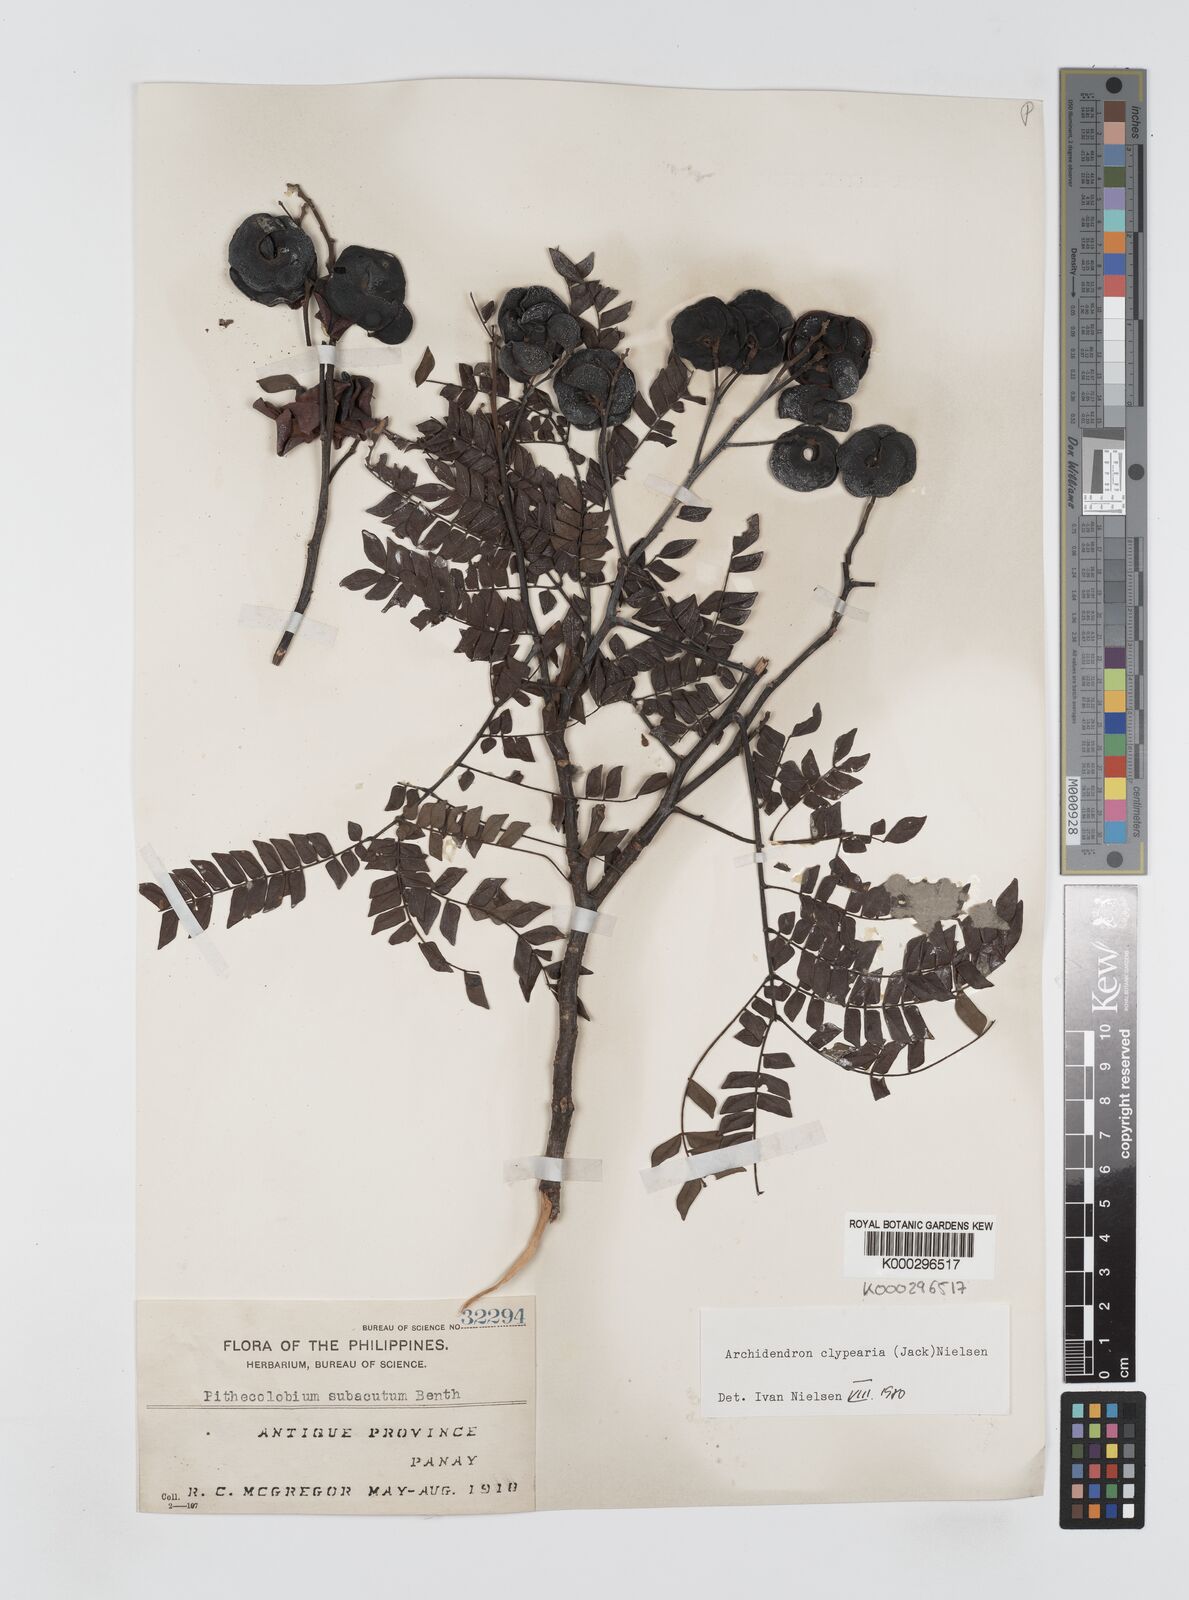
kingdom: Plantae
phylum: Tracheophyta
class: Magnoliopsida
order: Fabales
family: Fabaceae
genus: Archidendron
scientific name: Archidendron clypearia
